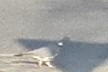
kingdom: Animalia
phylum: Chordata
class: Aves
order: Columbiformes
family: Columbidae
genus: Columba
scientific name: Columba palumbus
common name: Ringdue
